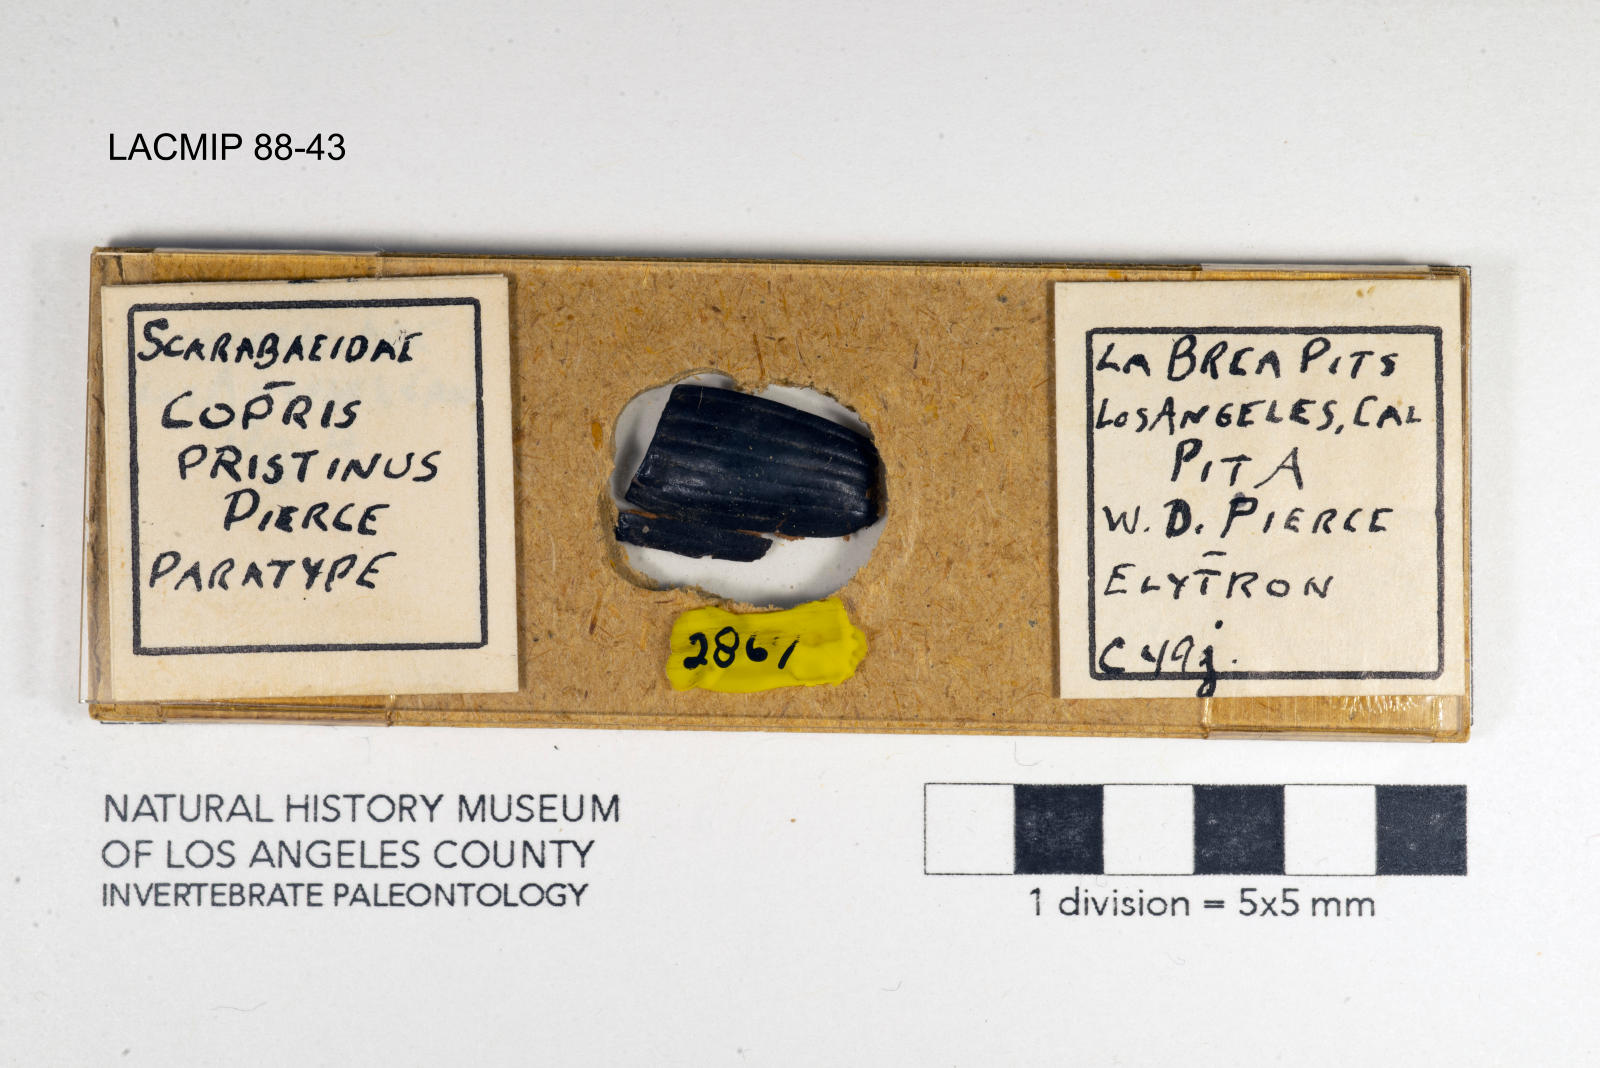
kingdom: Animalia
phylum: Arthropoda
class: Insecta
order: Coleoptera
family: Scarabaeidae
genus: Copris
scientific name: Copris pristinus
